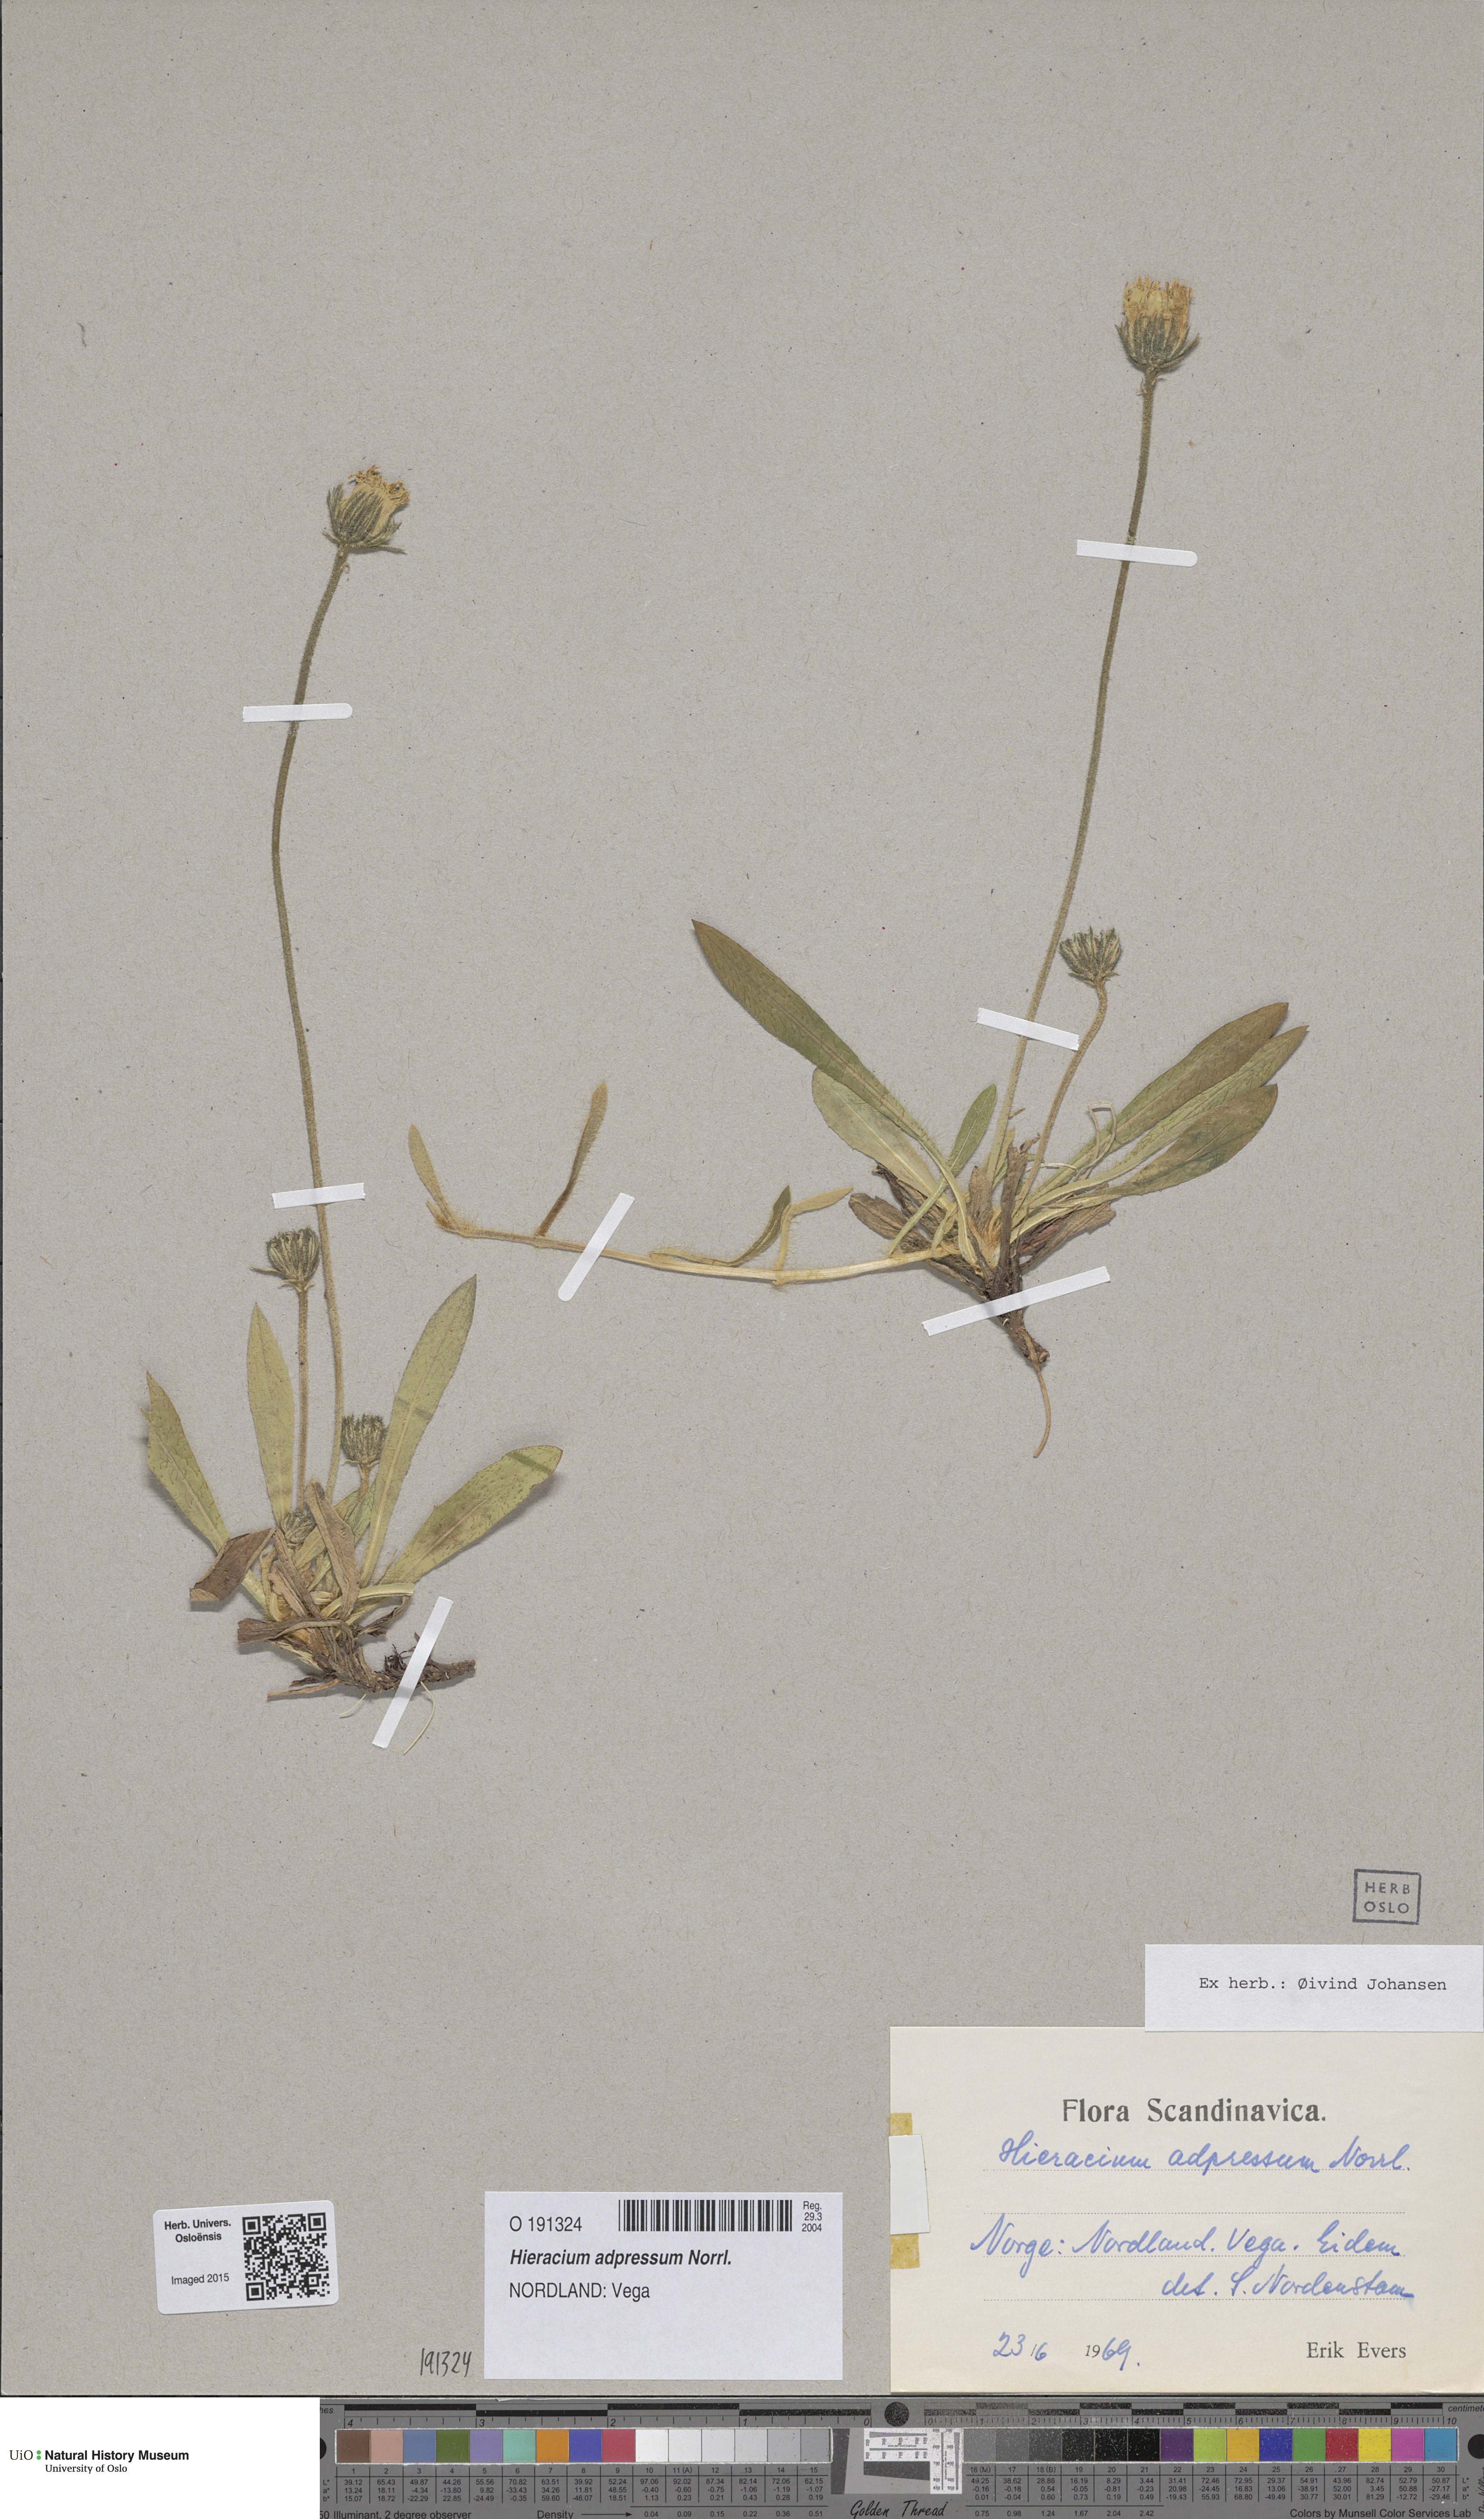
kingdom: Plantae
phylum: Tracheophyta
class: Magnoliopsida
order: Asterales
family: Asteraceae
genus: Hieracium
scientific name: Hieracium adpressum
